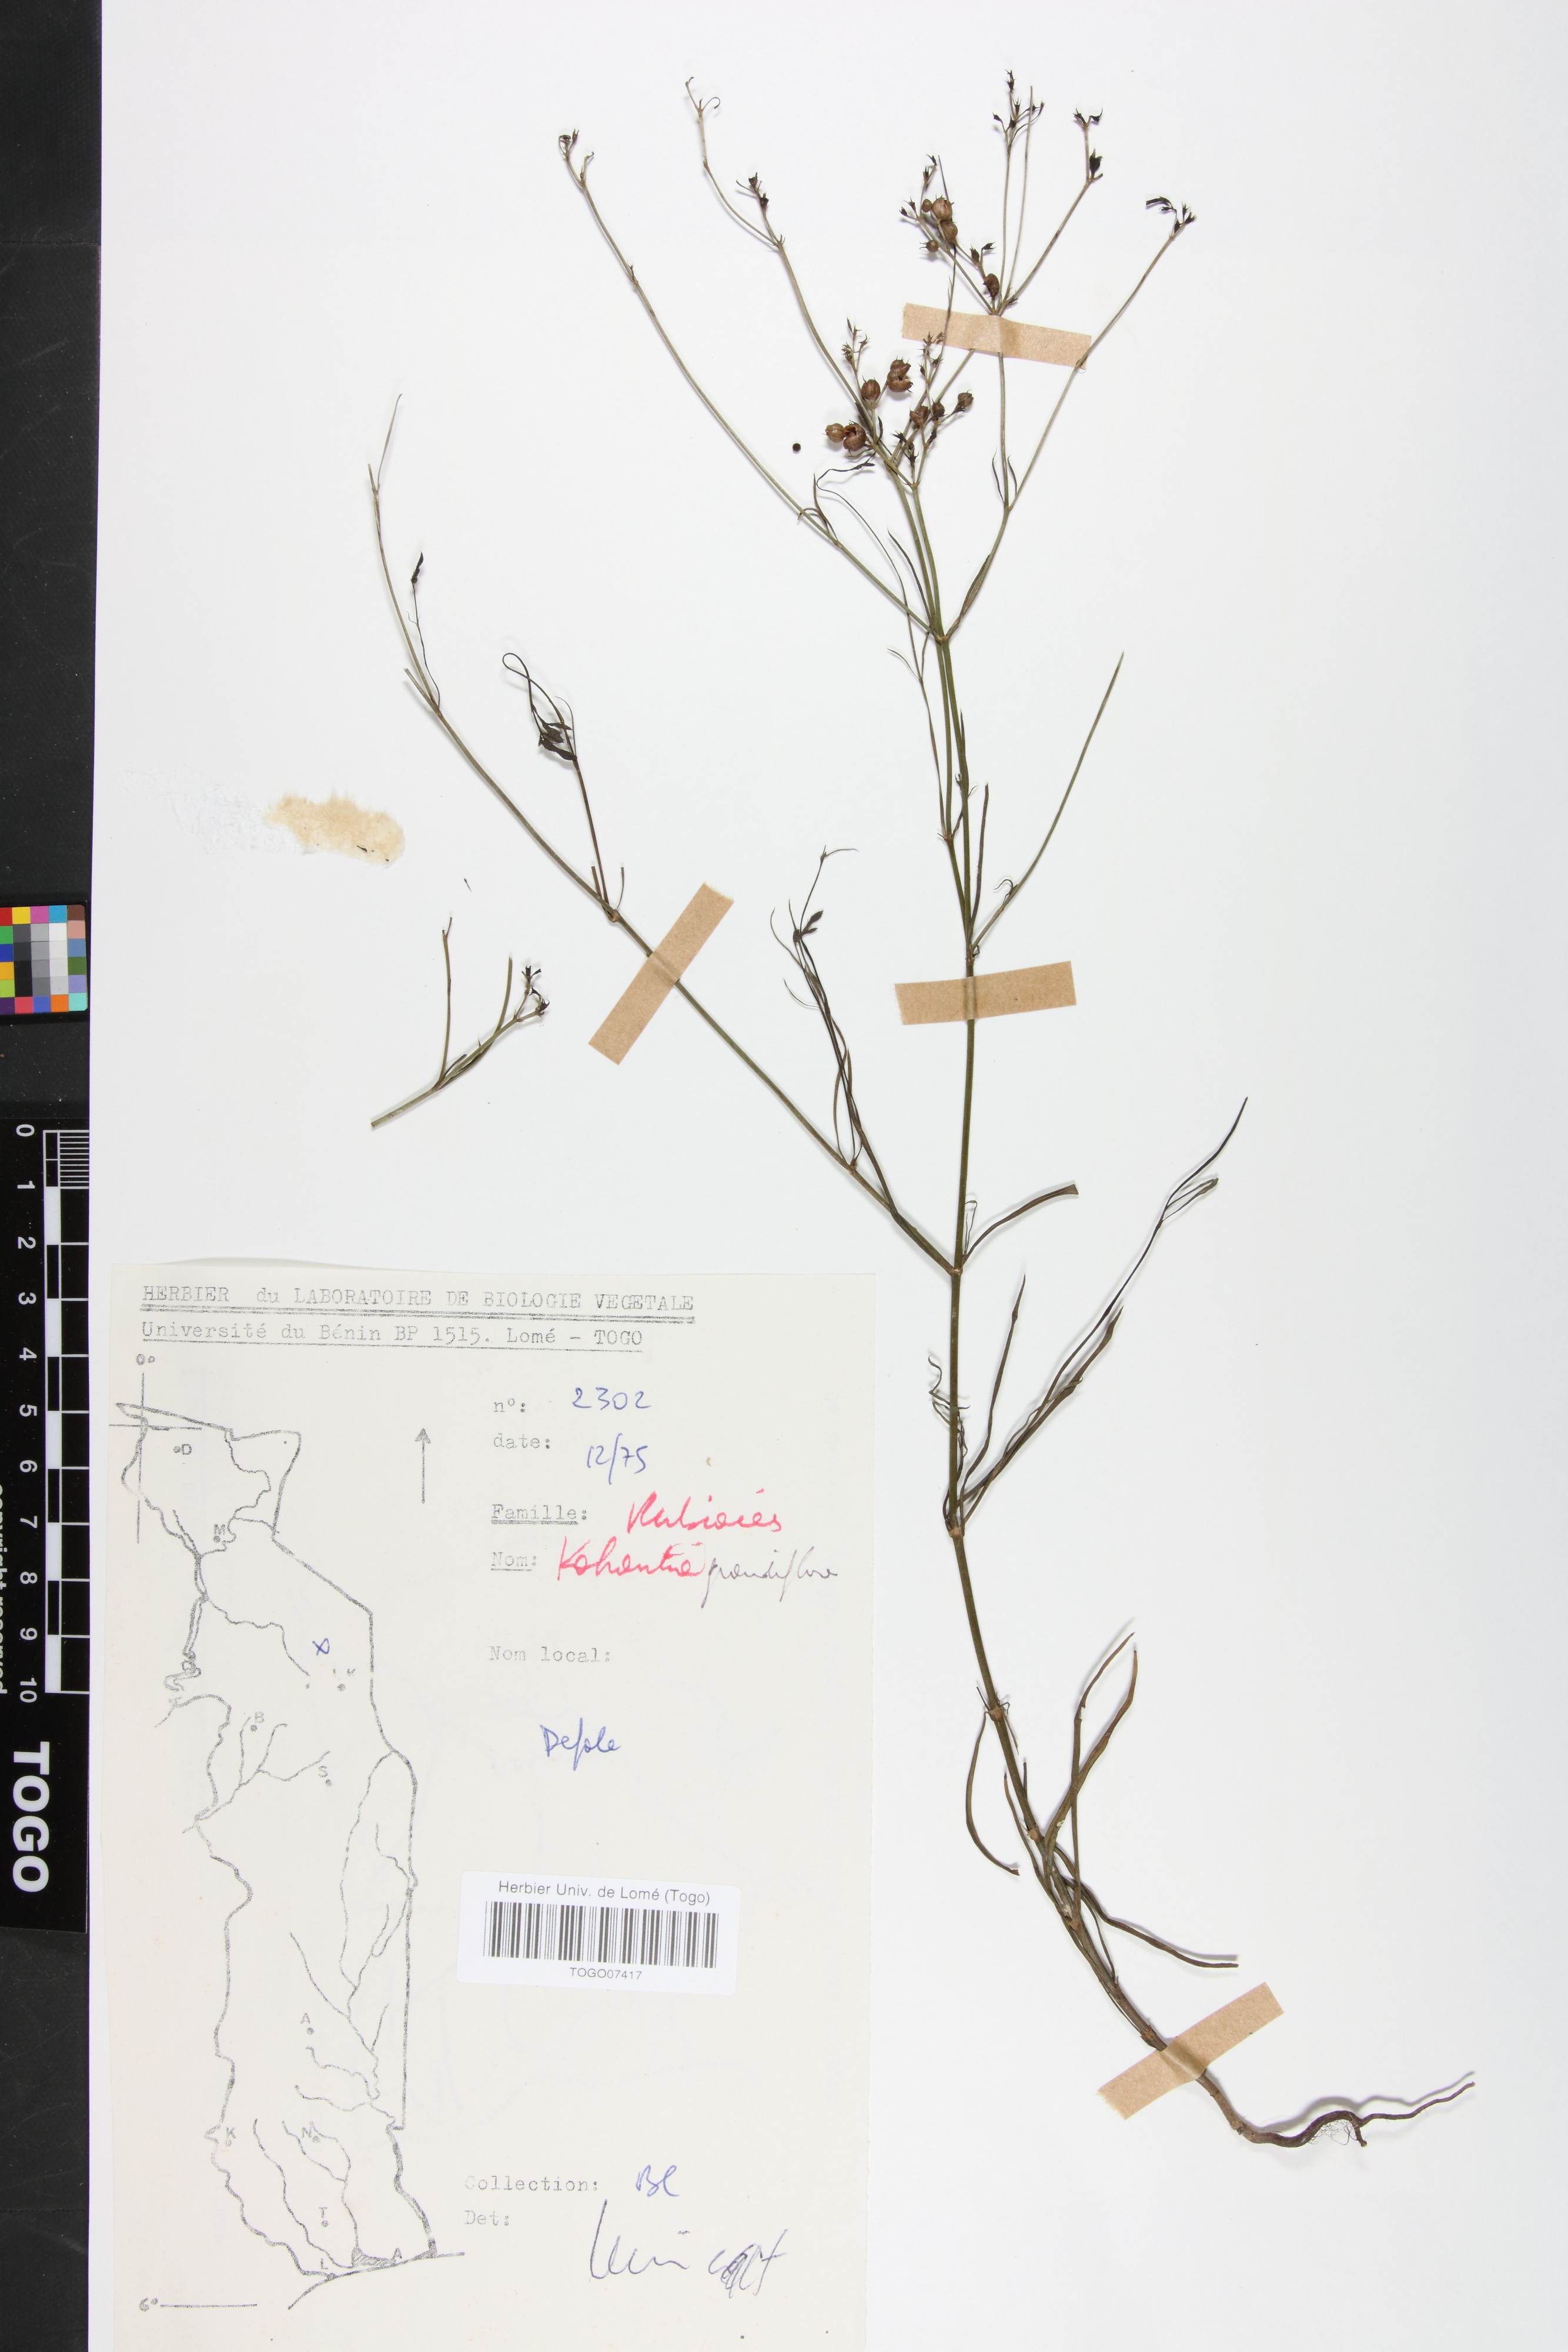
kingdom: Plantae
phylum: Tracheophyta
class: Magnoliopsida
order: Gentianales
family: Rubiaceae
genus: Kohautia
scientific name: Kohautia grandiflora
